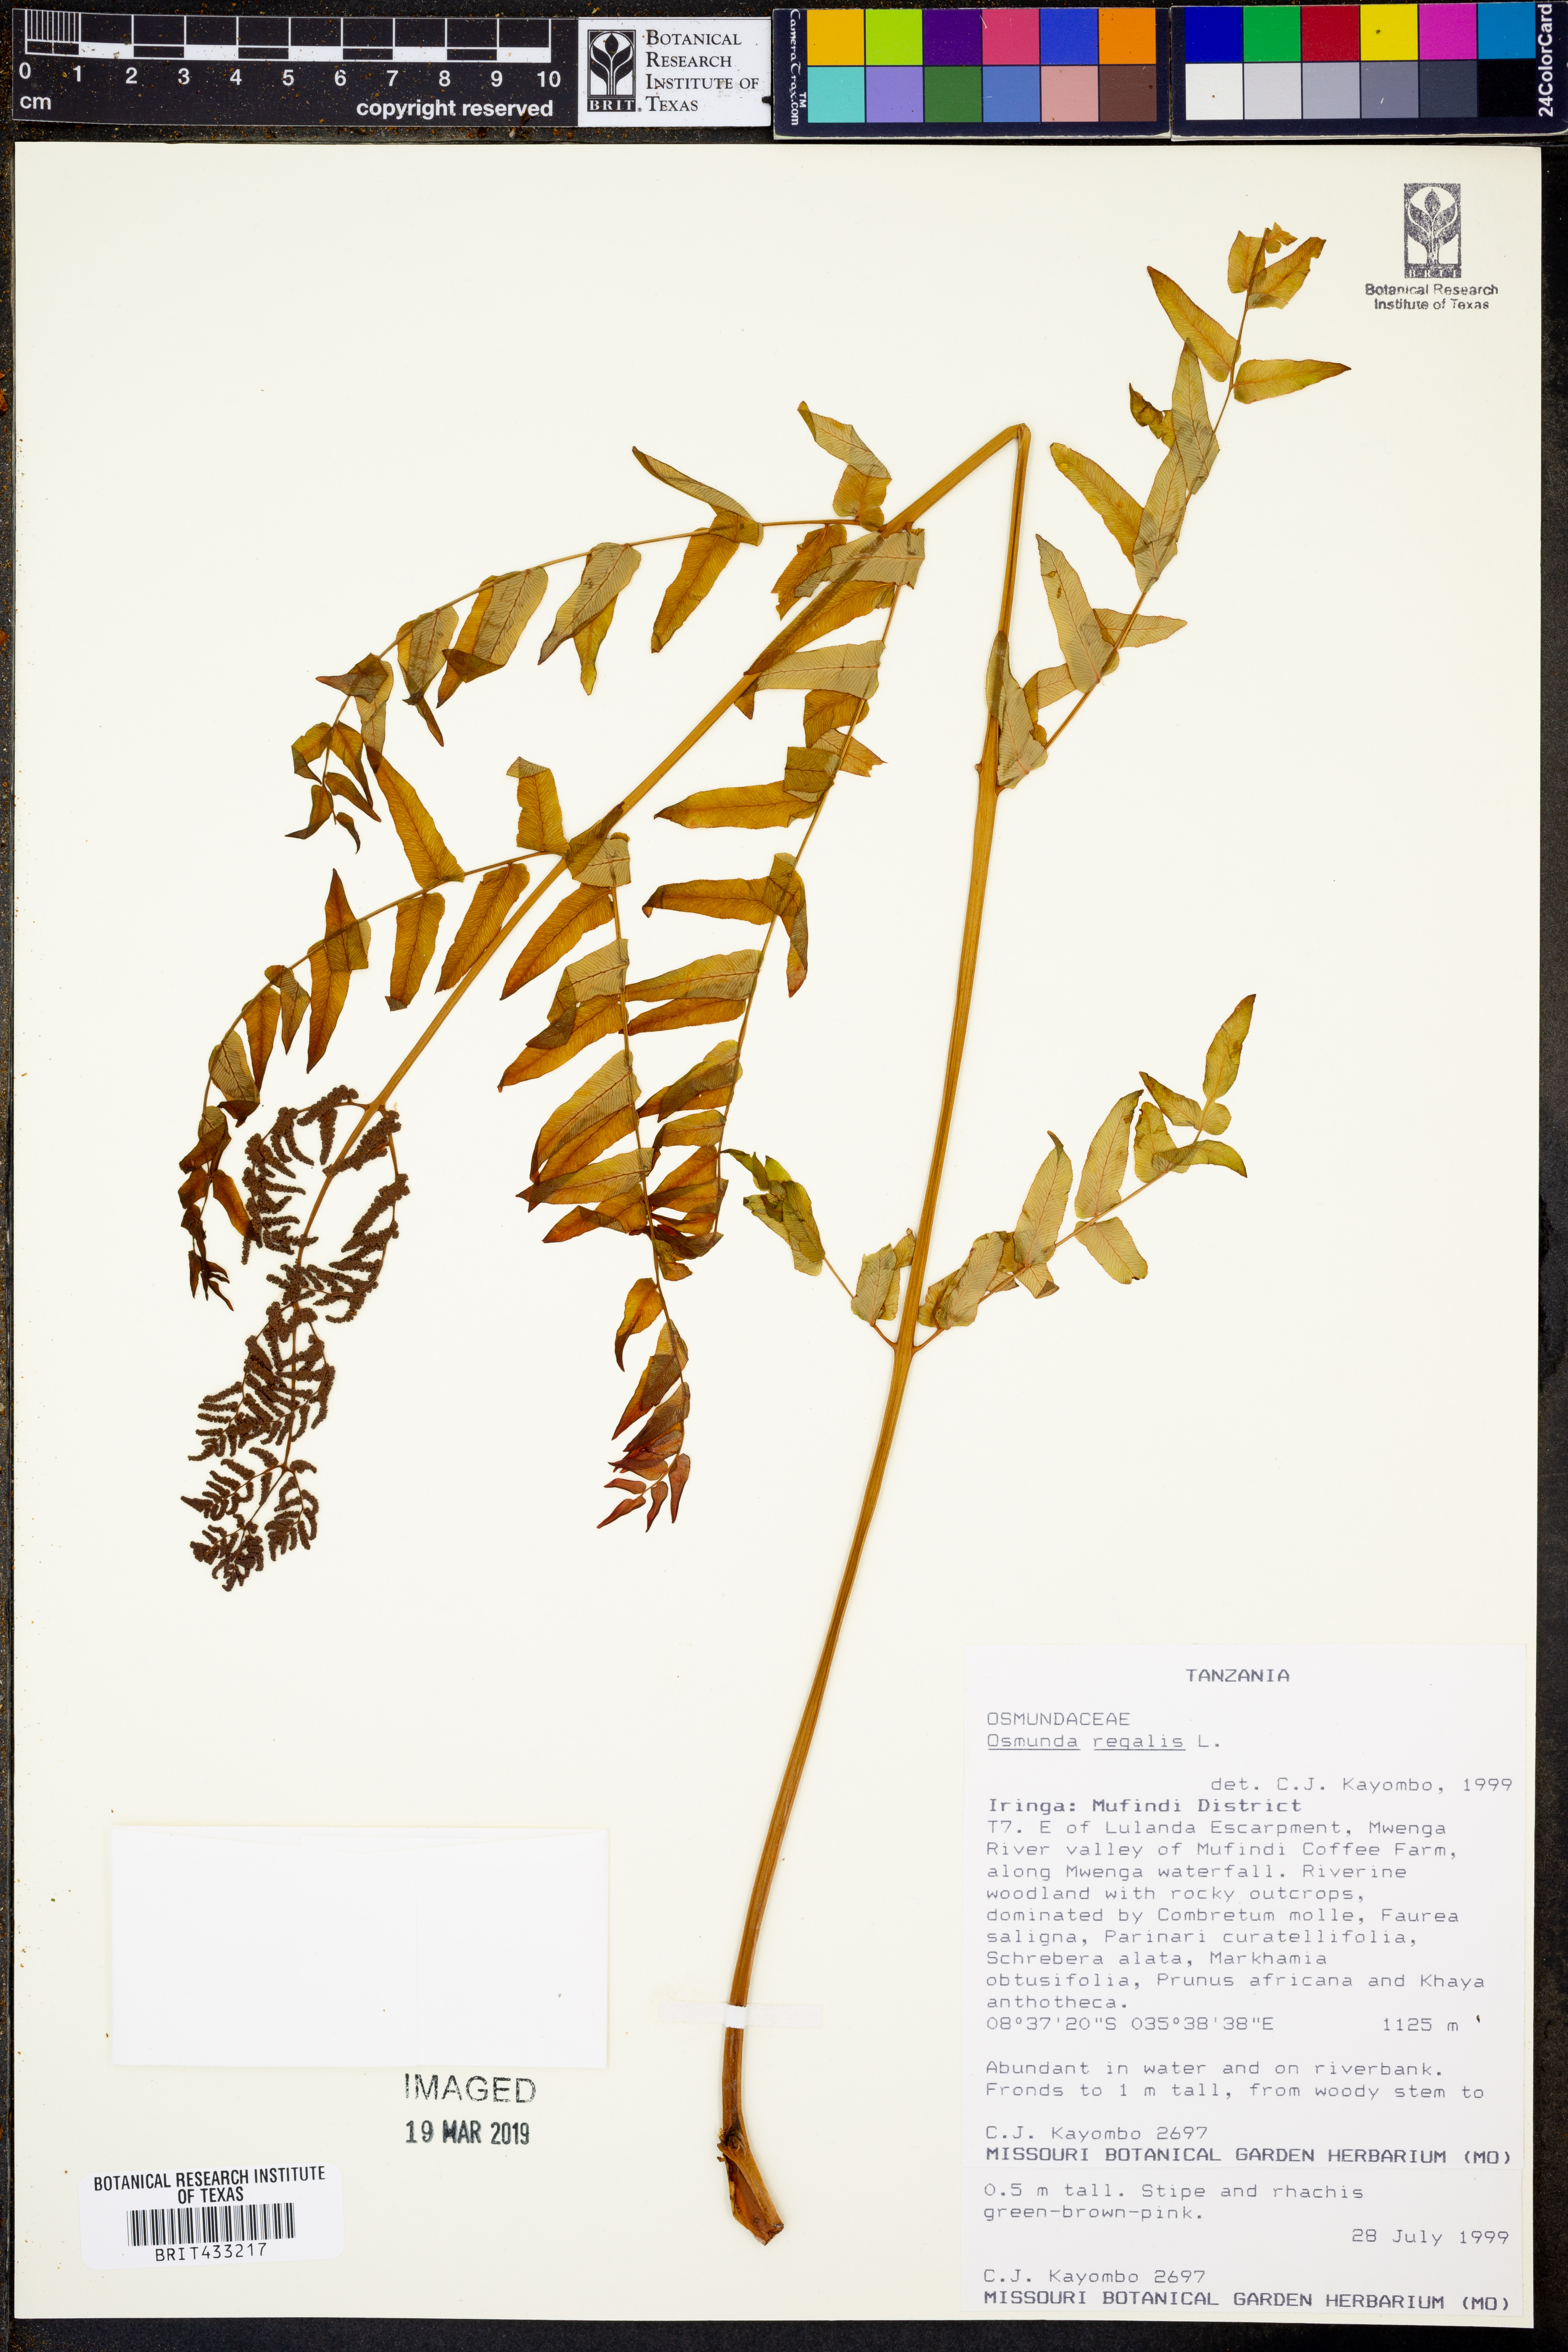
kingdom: Plantae
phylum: Tracheophyta
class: Polypodiopsida
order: Osmundales
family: Osmundaceae
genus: Osmunda
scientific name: Osmunda regalis
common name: Royal fern
